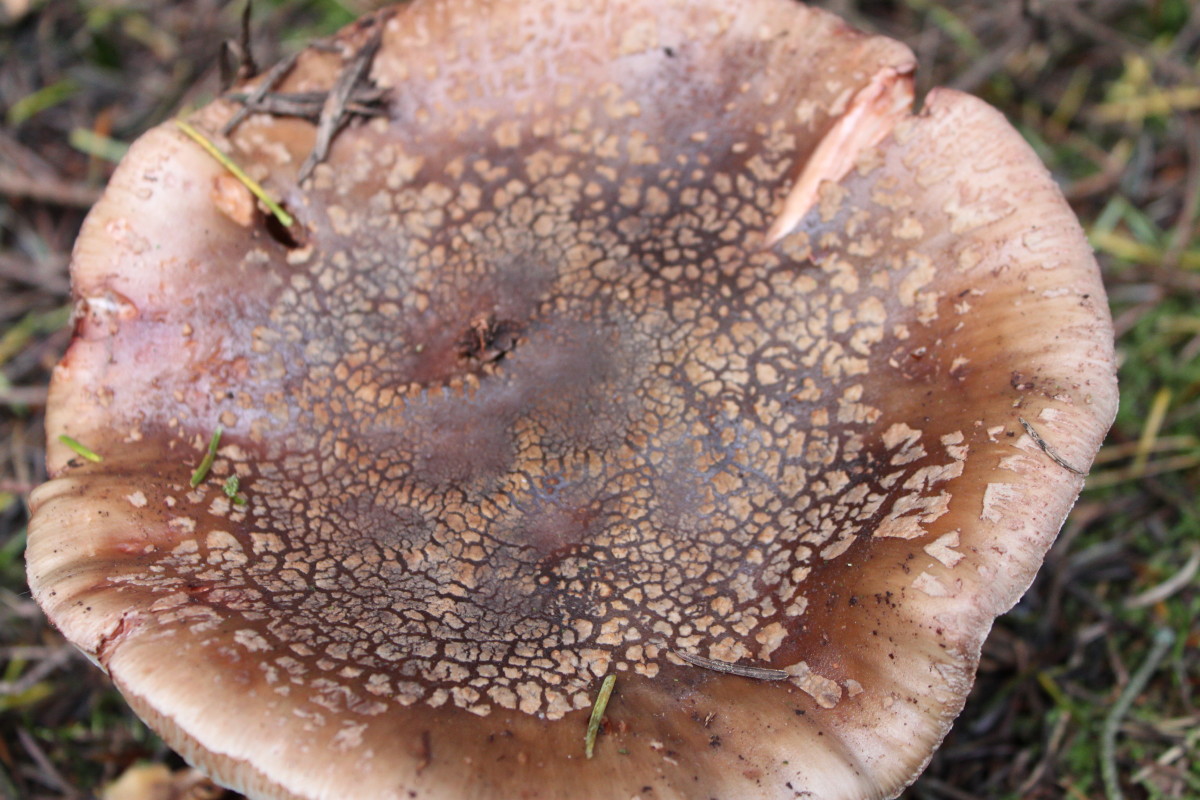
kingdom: Fungi
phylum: Basidiomycota
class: Agaricomycetes
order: Agaricales
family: Amanitaceae
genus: Amanita
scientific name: Amanita rubescens
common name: rødmende fluesvamp
